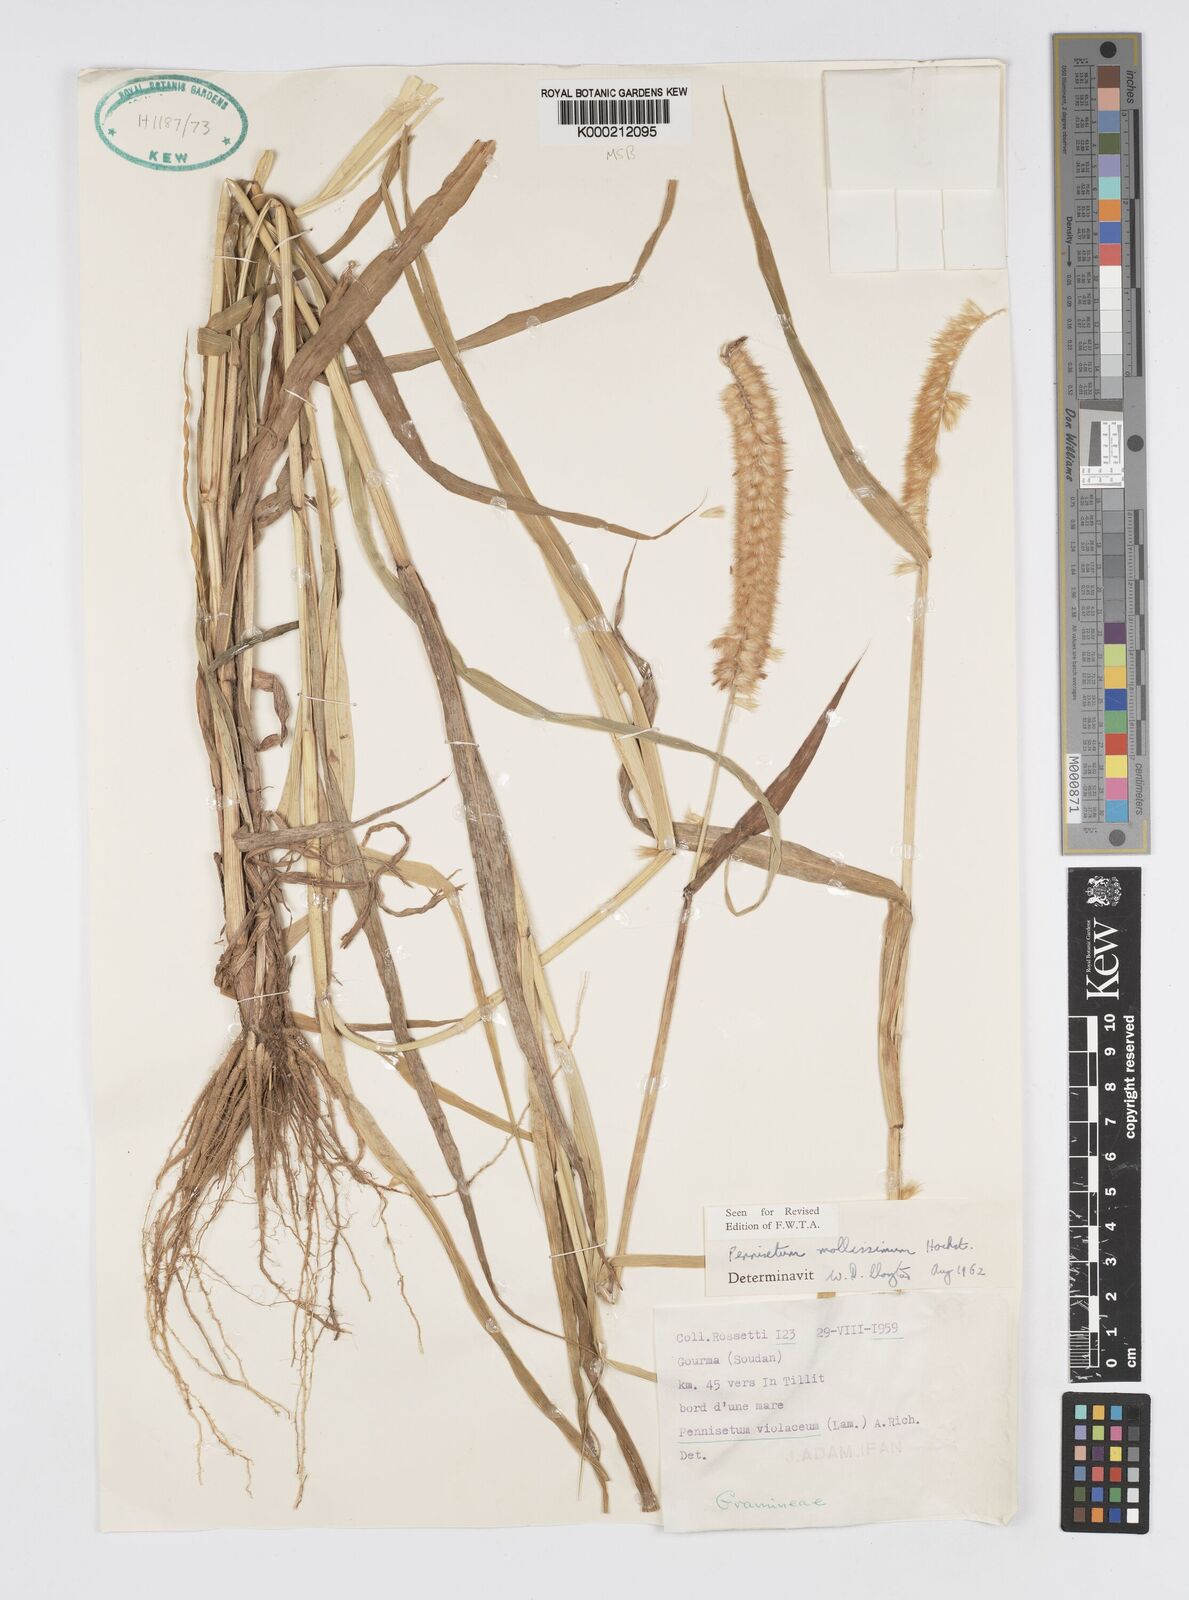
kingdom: Plantae
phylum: Tracheophyta
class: Liliopsida
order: Poales
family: Poaceae
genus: Cenchrus
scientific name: Cenchrus violaceus
